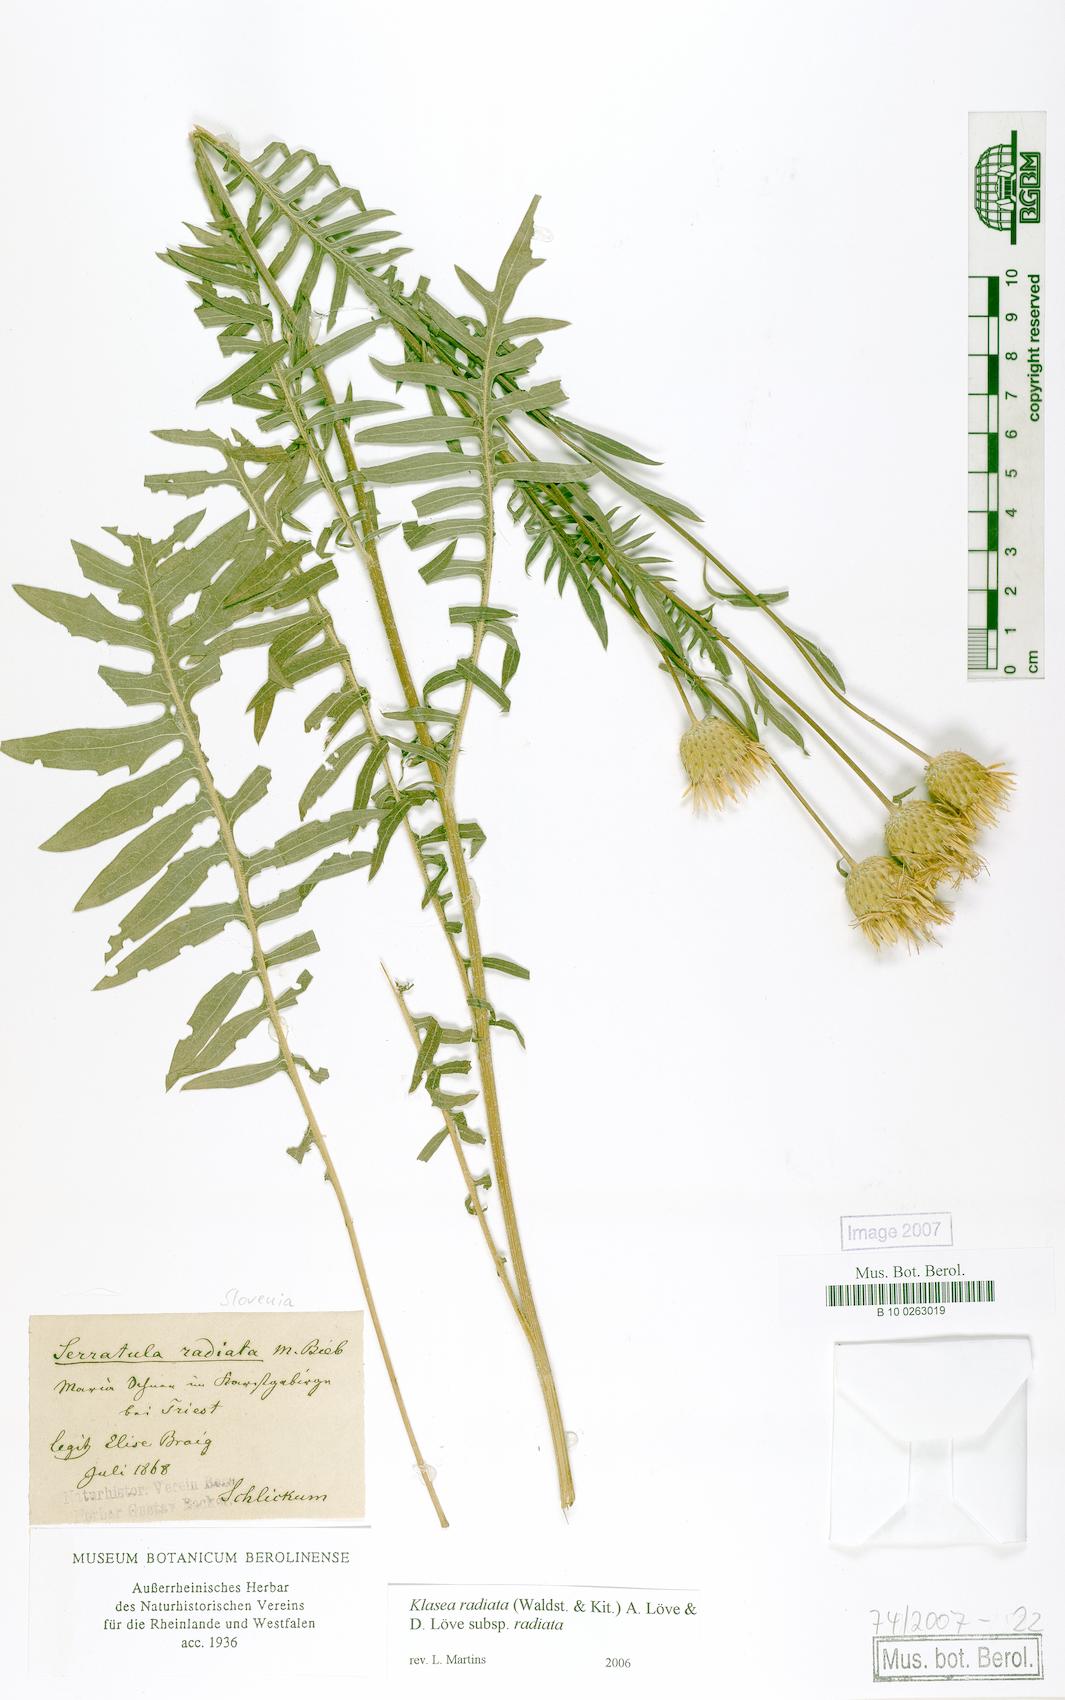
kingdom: Plantae
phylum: Tracheophyta
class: Magnoliopsida
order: Asterales
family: Asteraceae
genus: Klasea
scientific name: Klasea radiata
